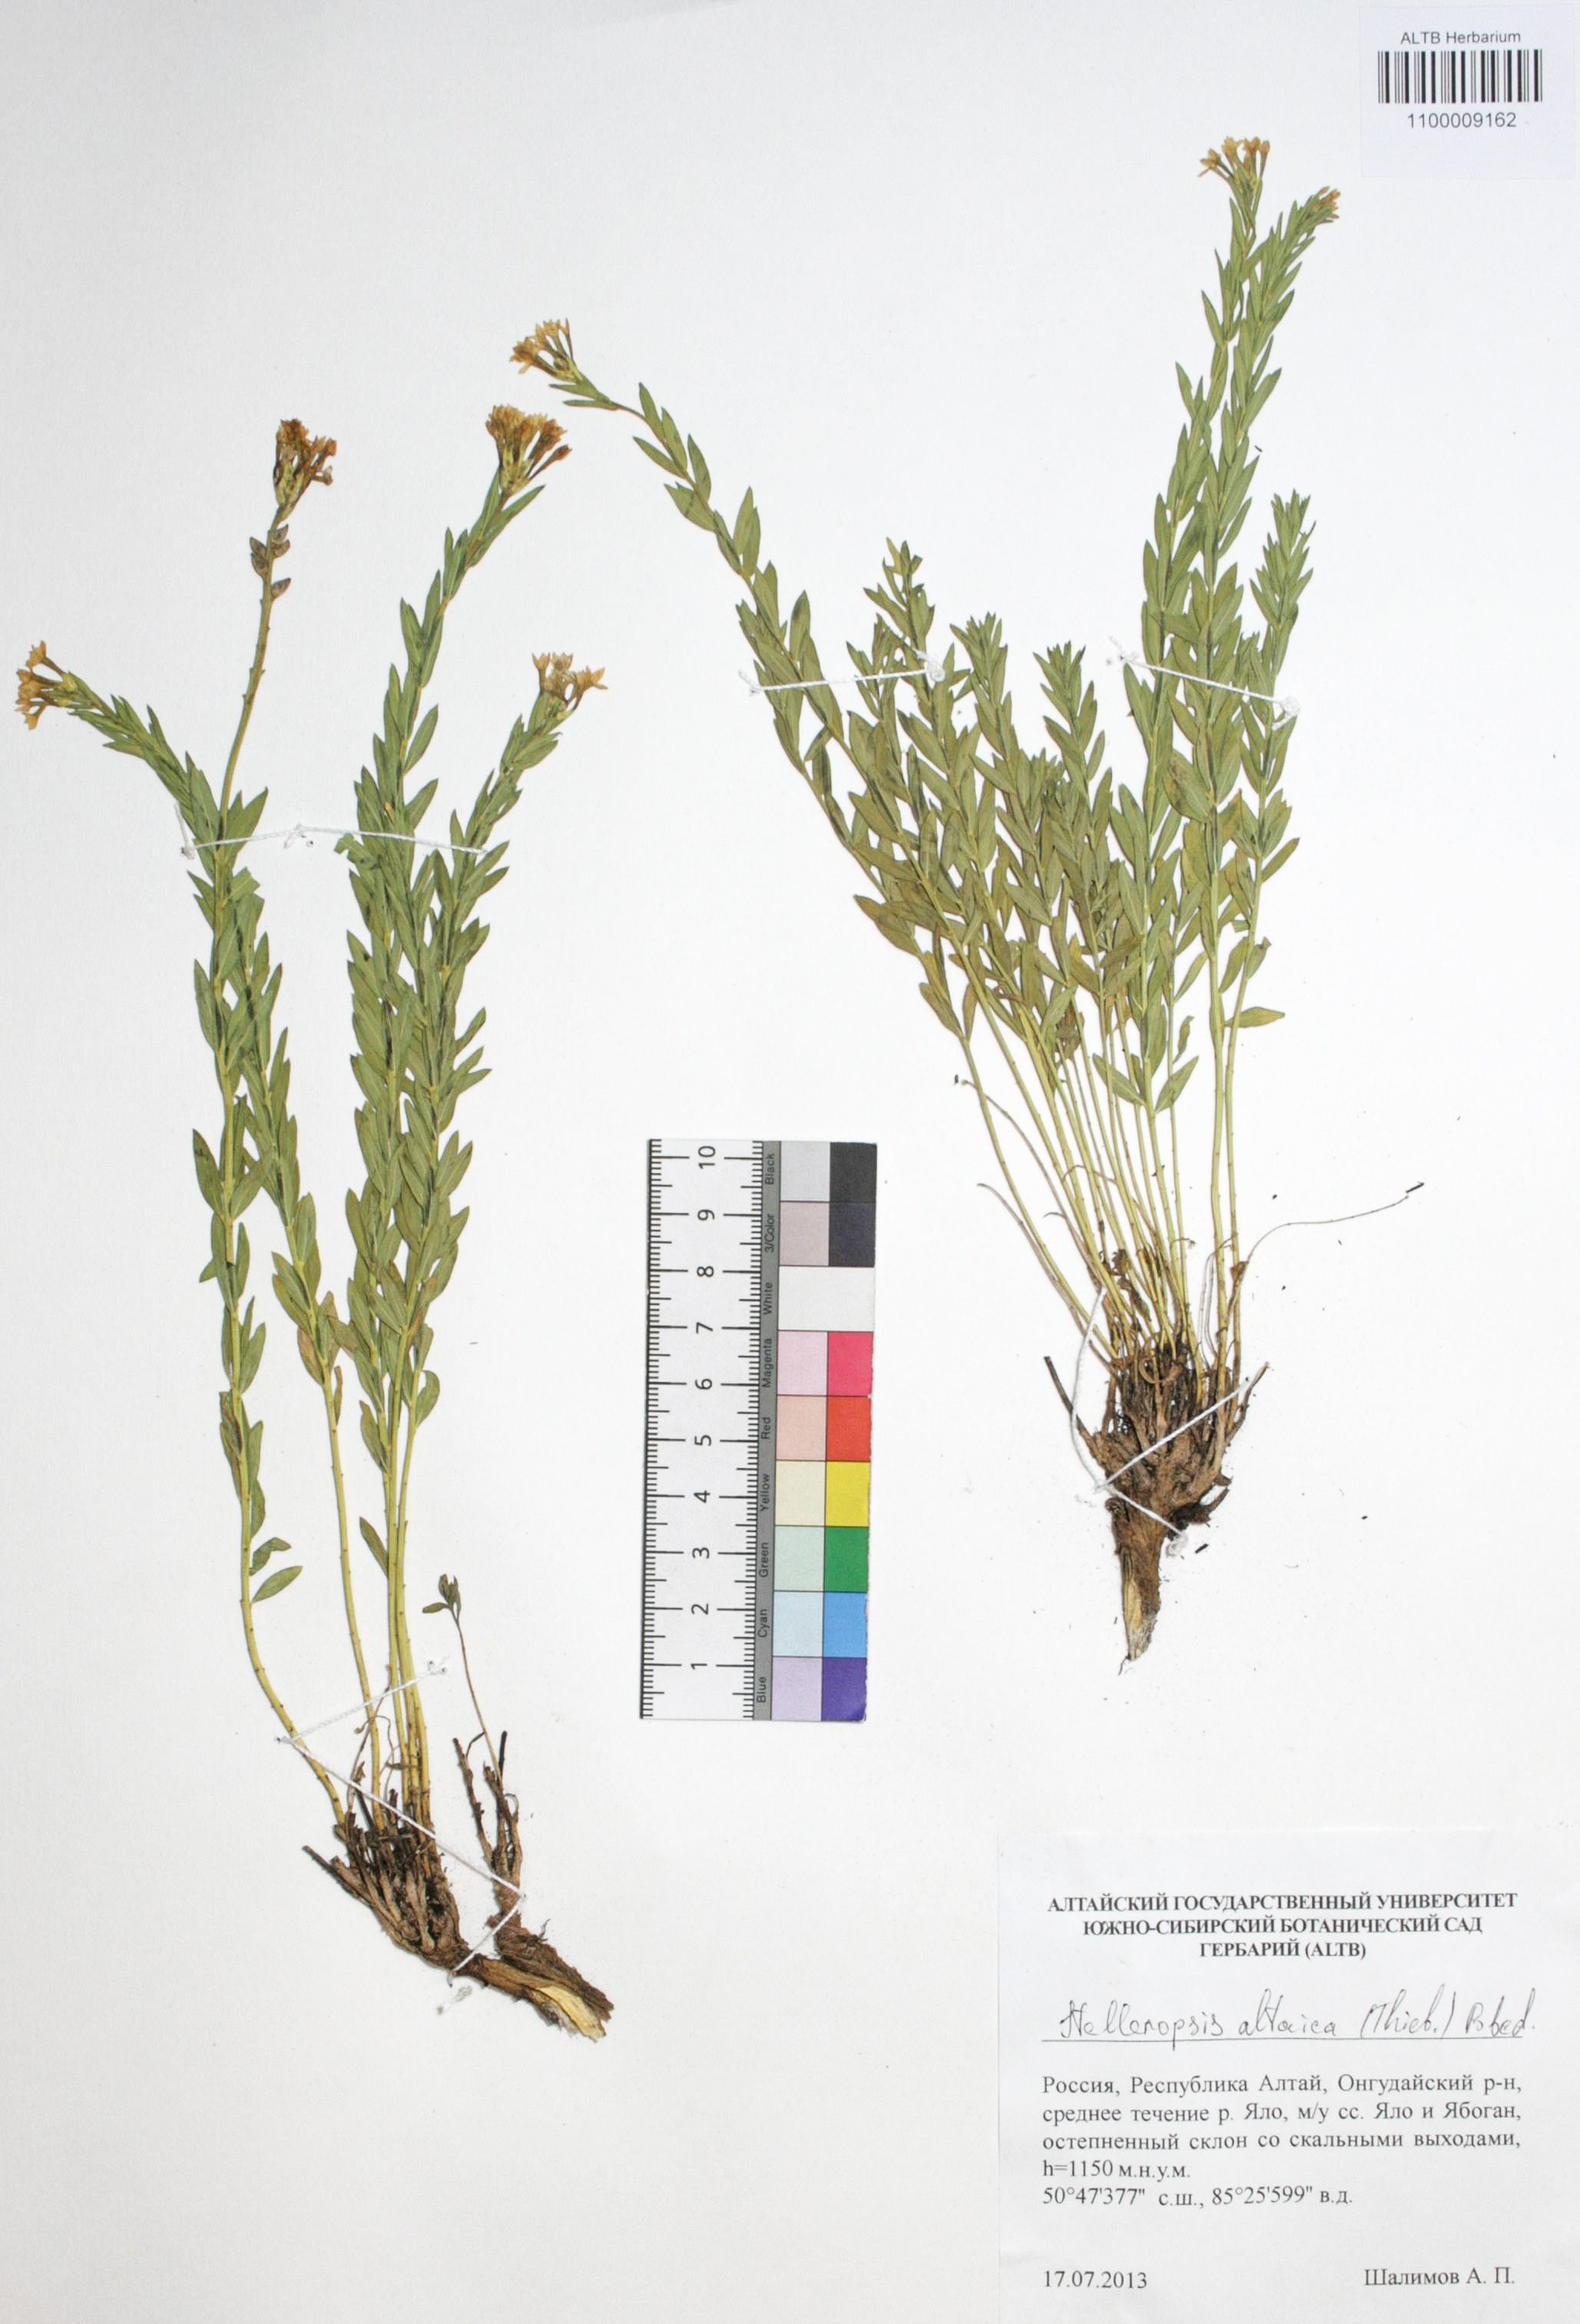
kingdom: Plantae
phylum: Tracheophyta
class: Magnoliopsida
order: Malvales
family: Thymelaeaceae
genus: Diarthron
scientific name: Diarthron altaicum
